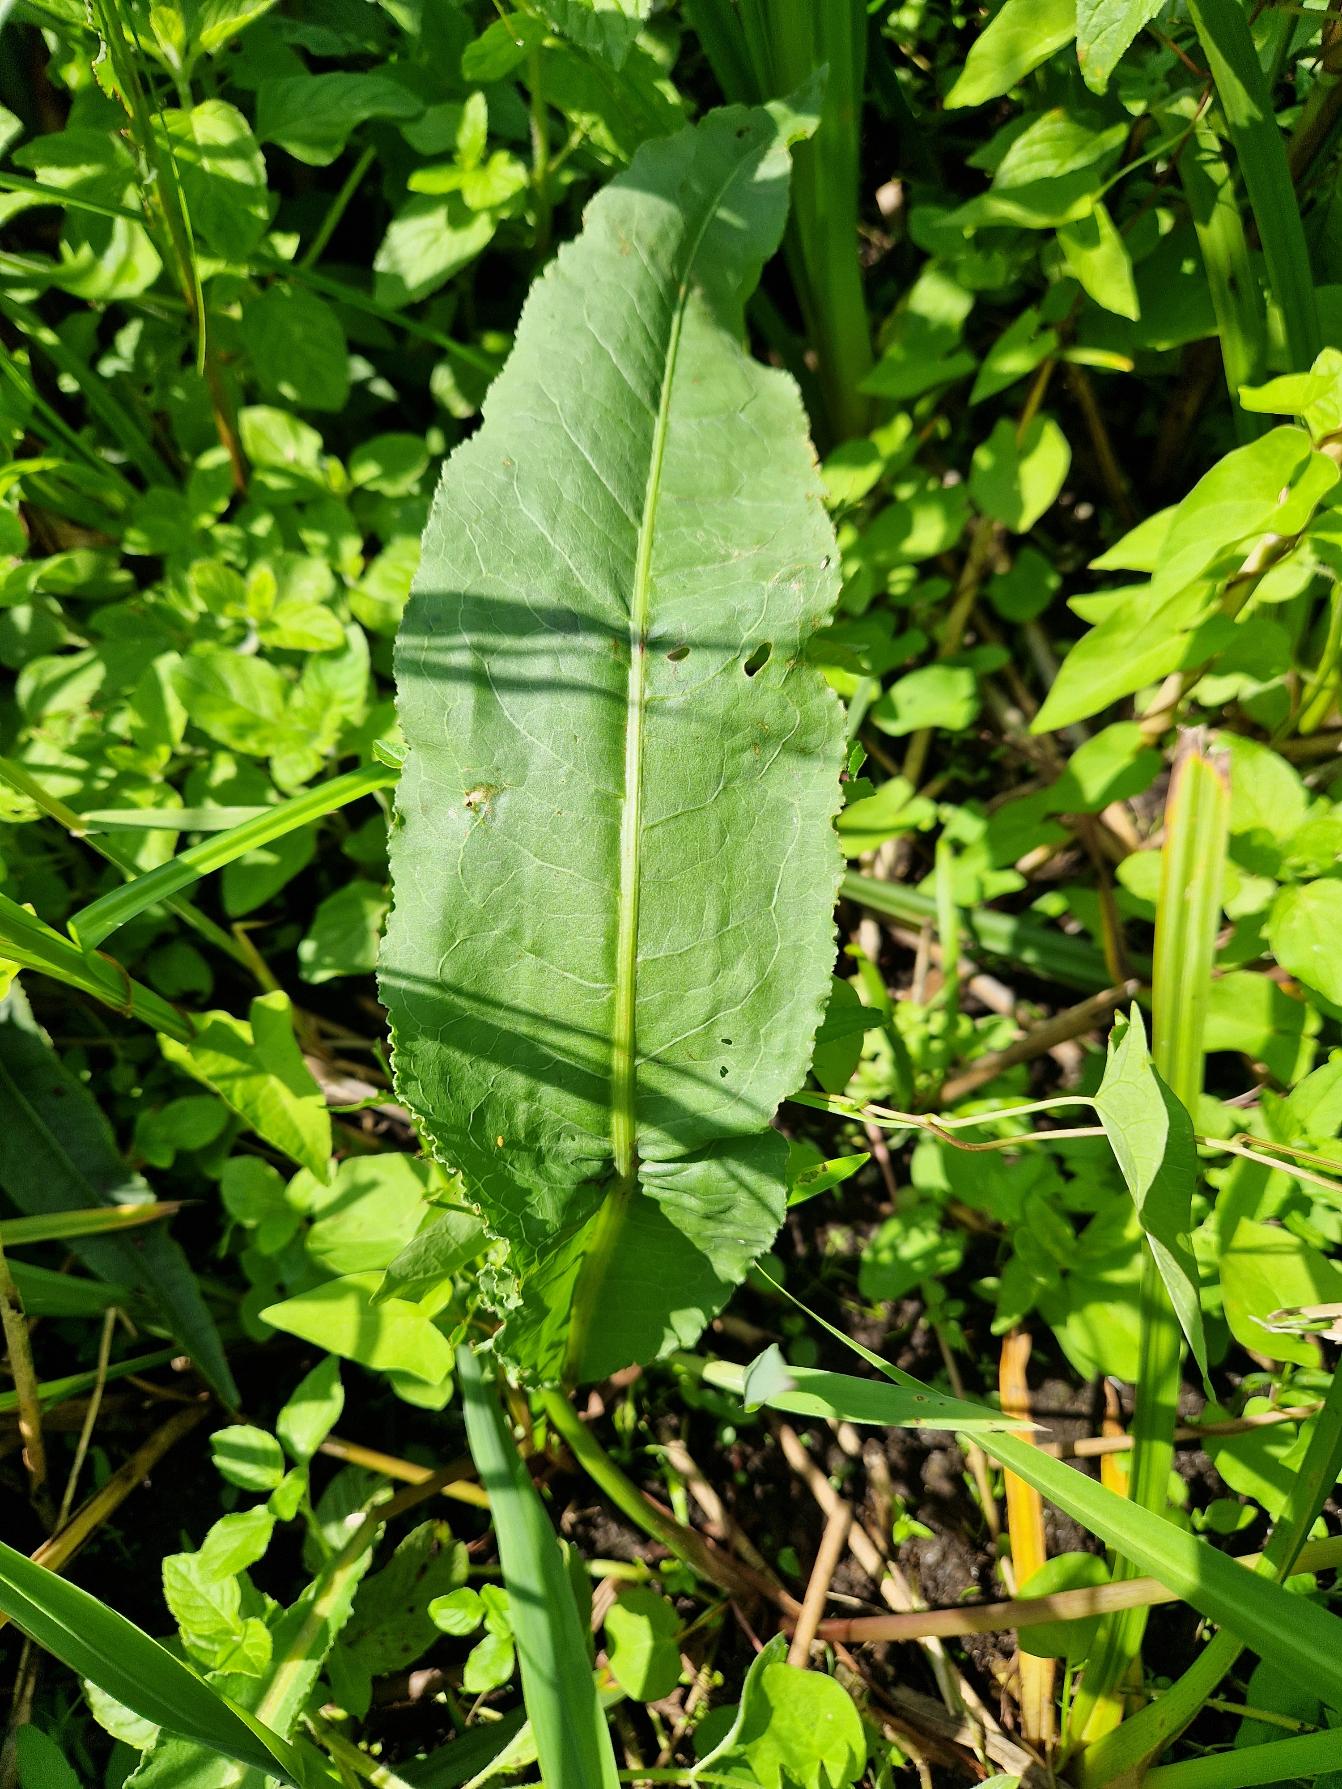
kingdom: Plantae
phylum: Tracheophyta
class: Magnoliopsida
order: Caryophyllales
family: Polygonaceae
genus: Rumex
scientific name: Rumex hydrolapathum
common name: Vand-skræppe
